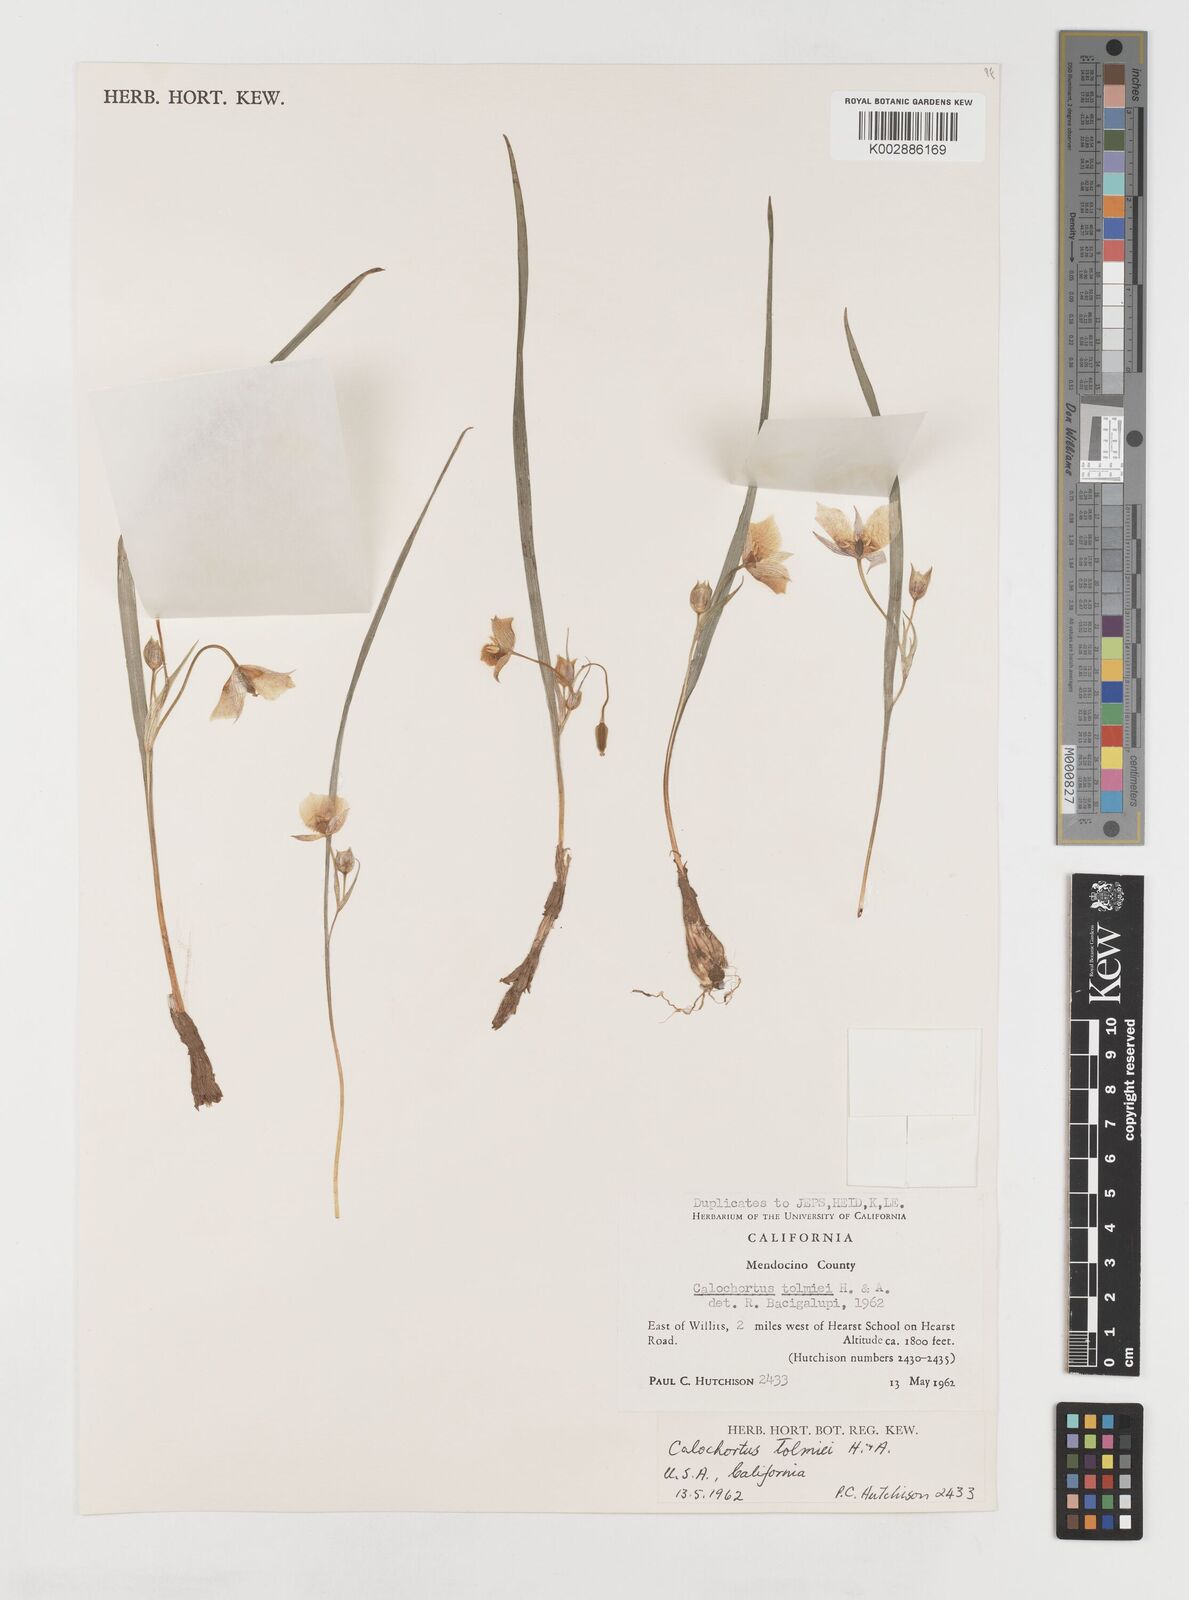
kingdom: Plantae
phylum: Tracheophyta
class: Liliopsida
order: Liliales
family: Liliaceae
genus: Calochortus
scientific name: Calochortus tolmiei
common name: Pussy-ears
